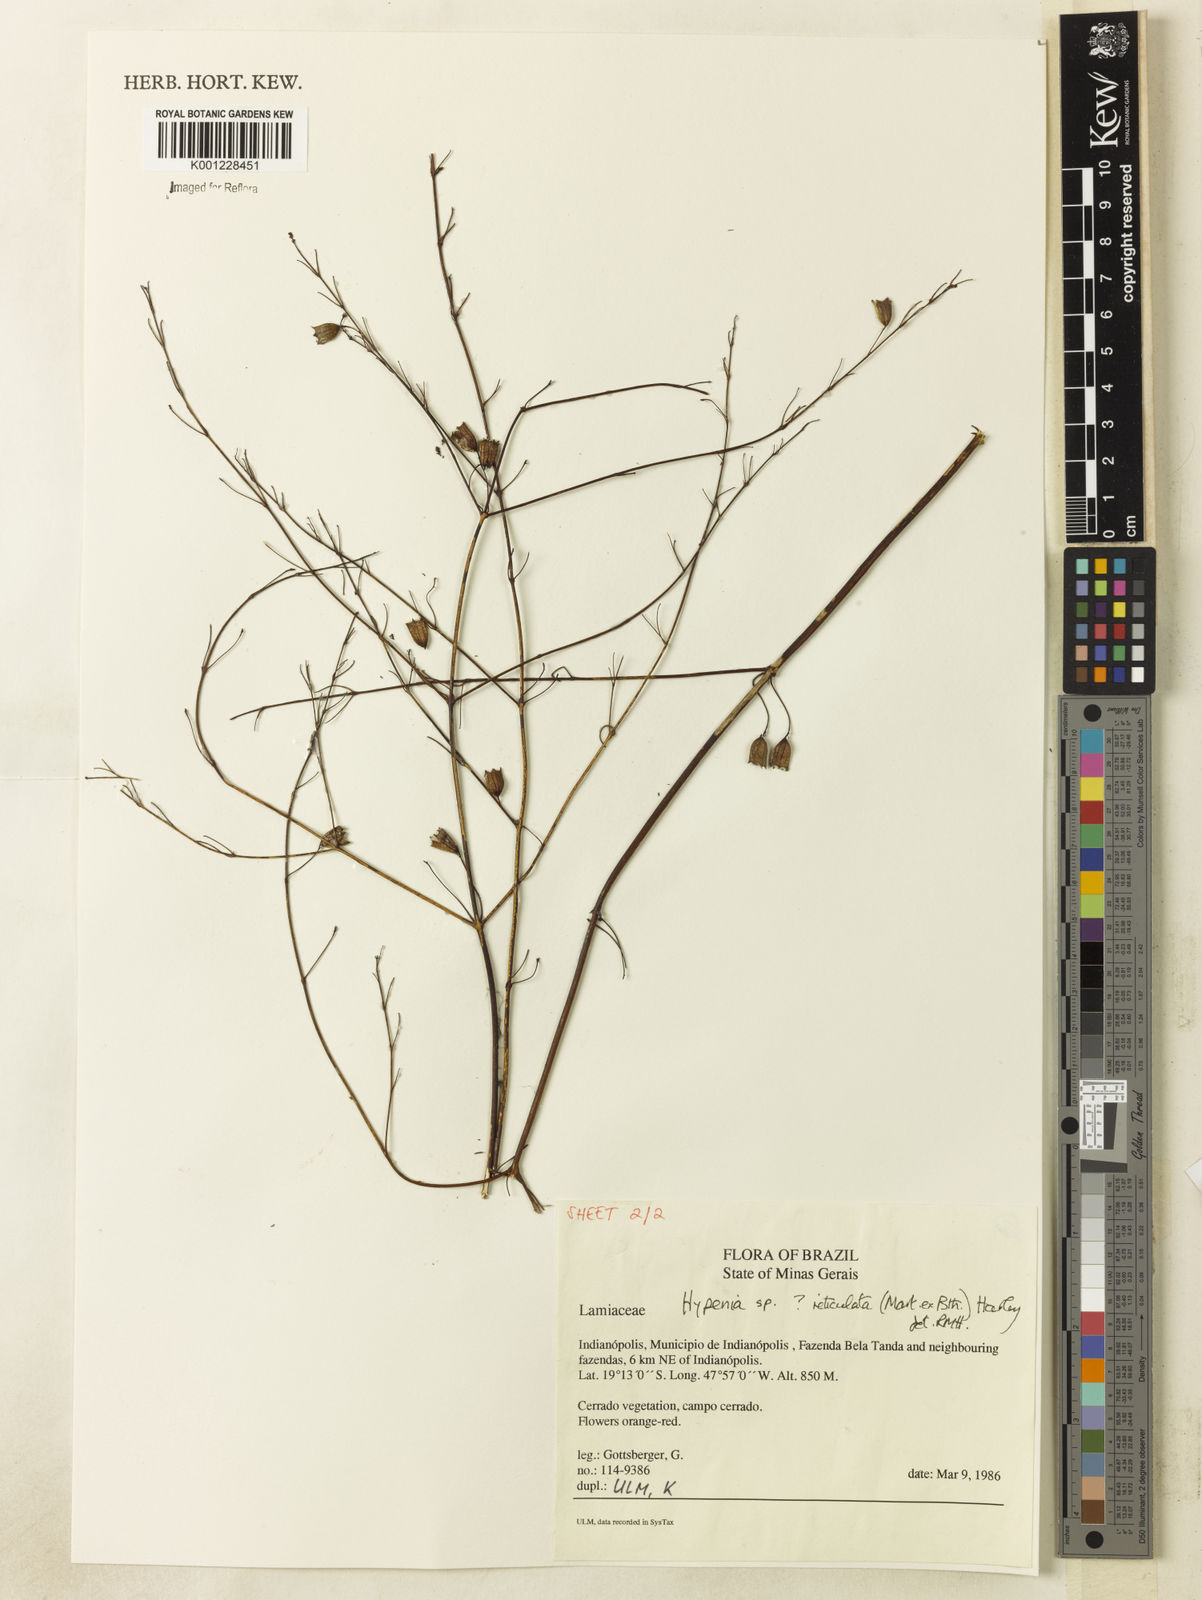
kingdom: Plantae
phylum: Tracheophyta
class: Magnoliopsida
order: Lamiales
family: Lamiaceae
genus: Hypenia
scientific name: Hypenia reticulata
